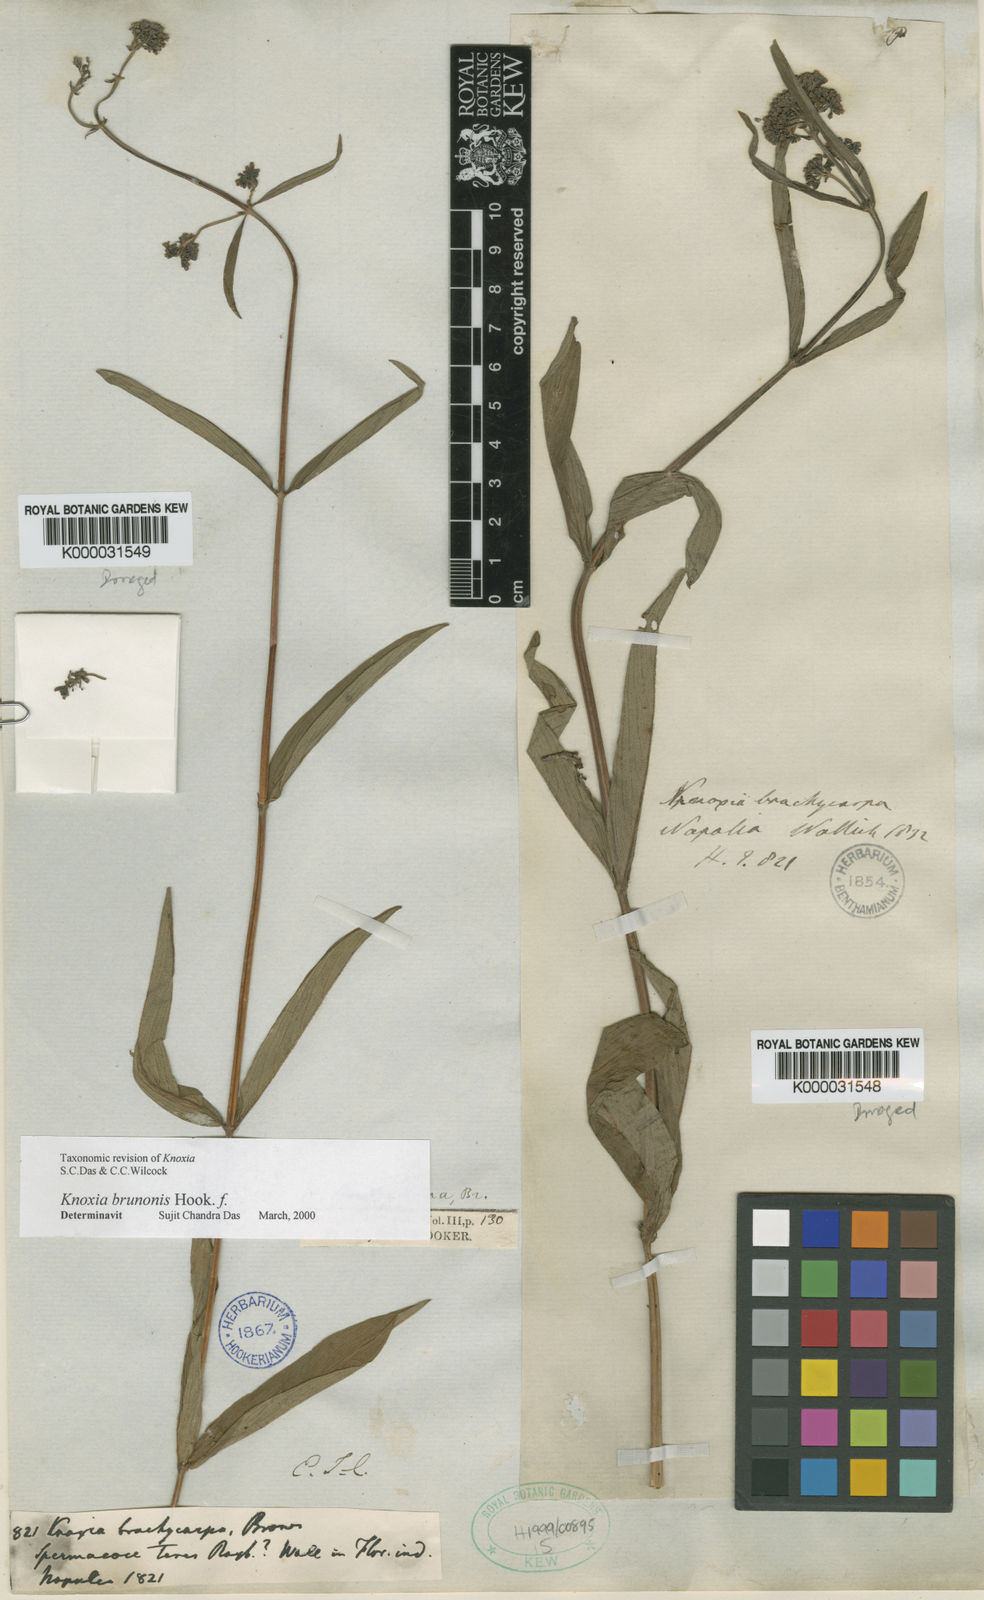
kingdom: Plantae
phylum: Tracheophyta
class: Magnoliopsida
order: Gentianales
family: Rubiaceae
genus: Knoxia
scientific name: Knoxia
